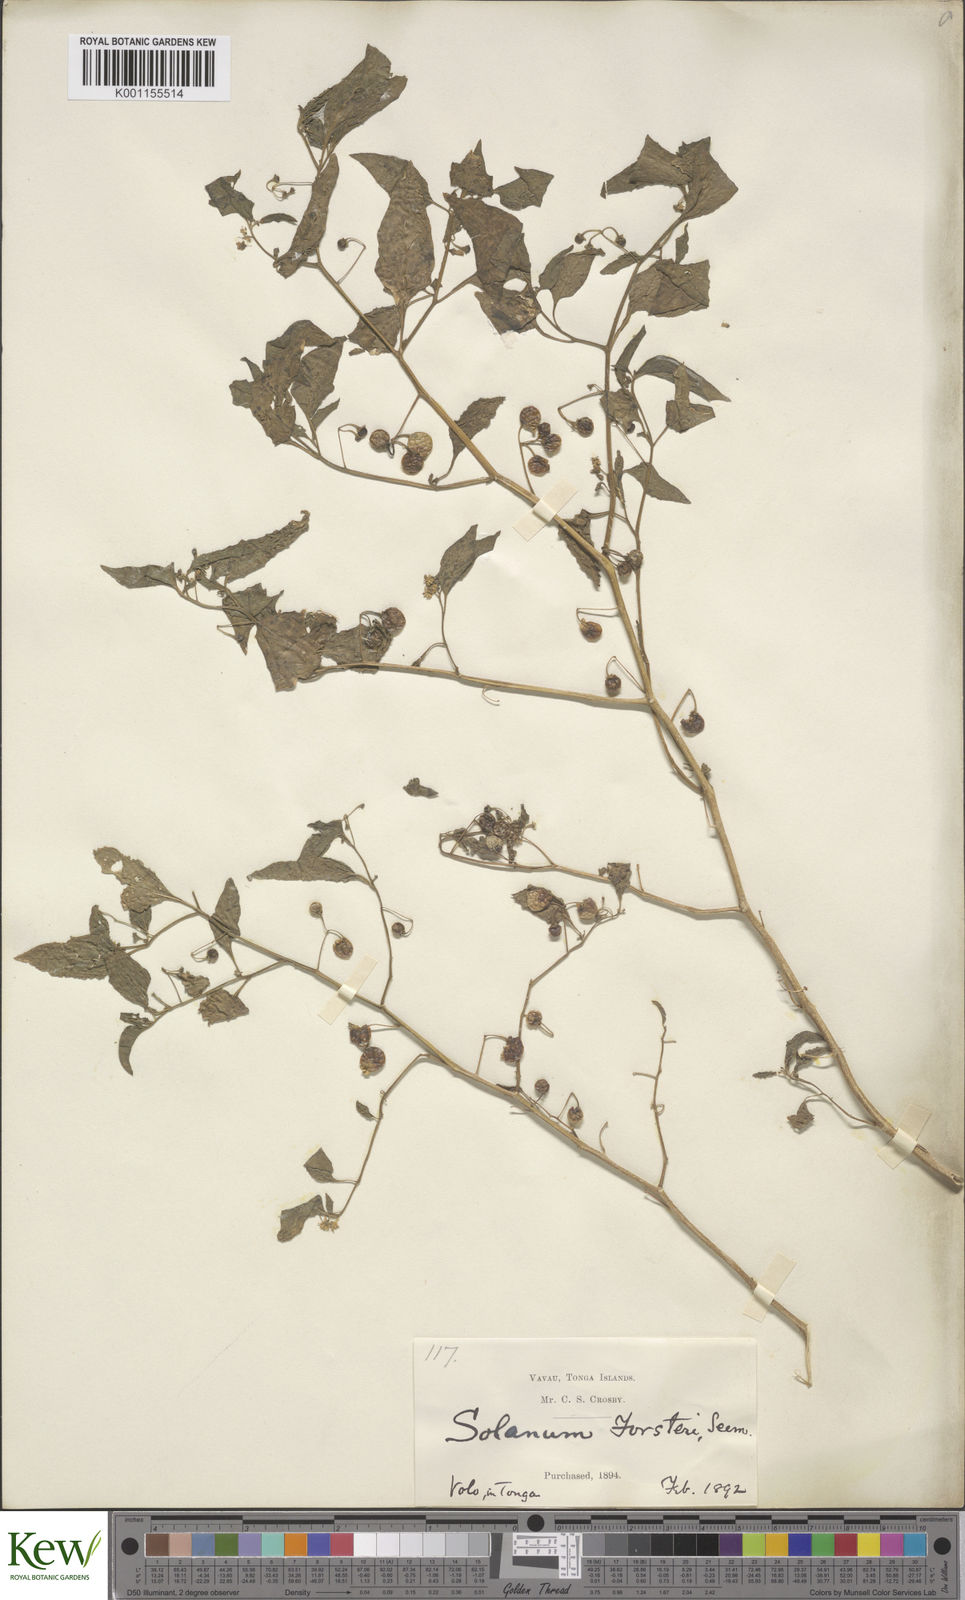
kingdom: Plantae
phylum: Tracheophyta
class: Magnoliopsida
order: Solanales
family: Solanaceae
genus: Solanum
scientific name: Solanum opacum
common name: Green-berry nightshade
